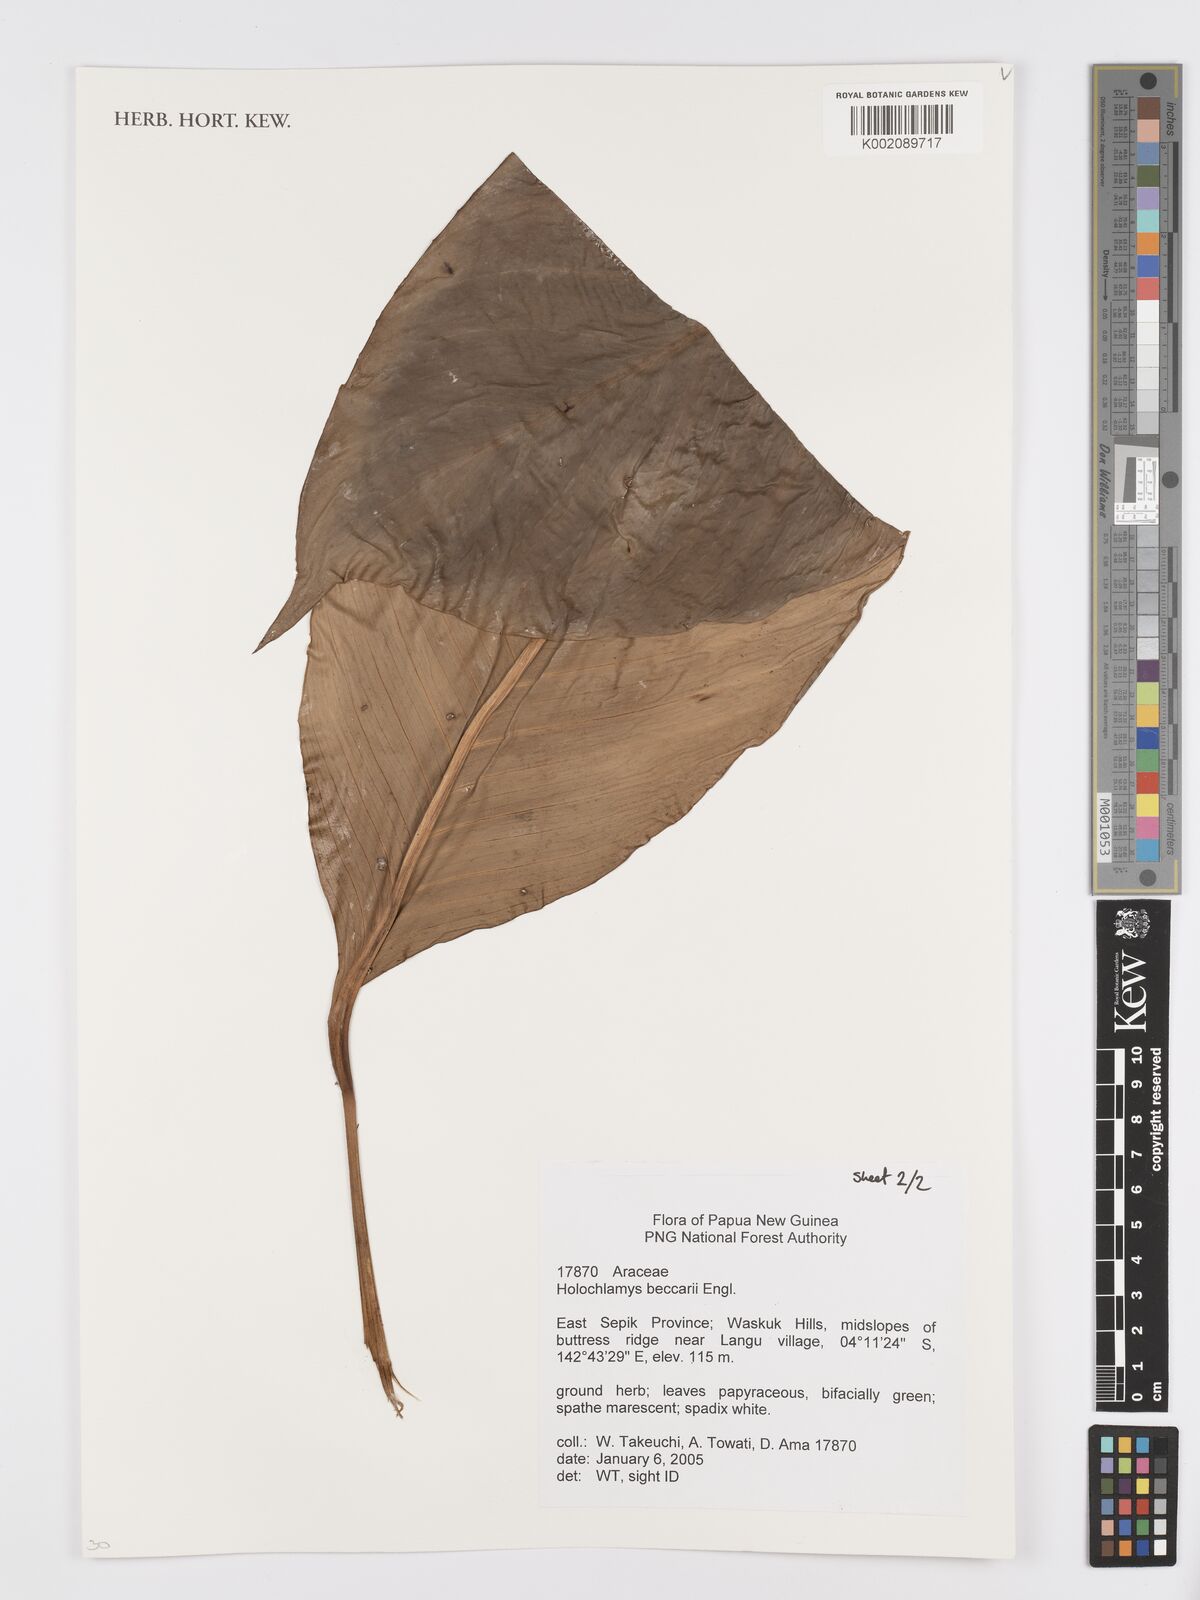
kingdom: Plantae
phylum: Tracheophyta
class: Liliopsida
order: Alismatales
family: Araceae
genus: Holochlamys
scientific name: Holochlamys beccarii
